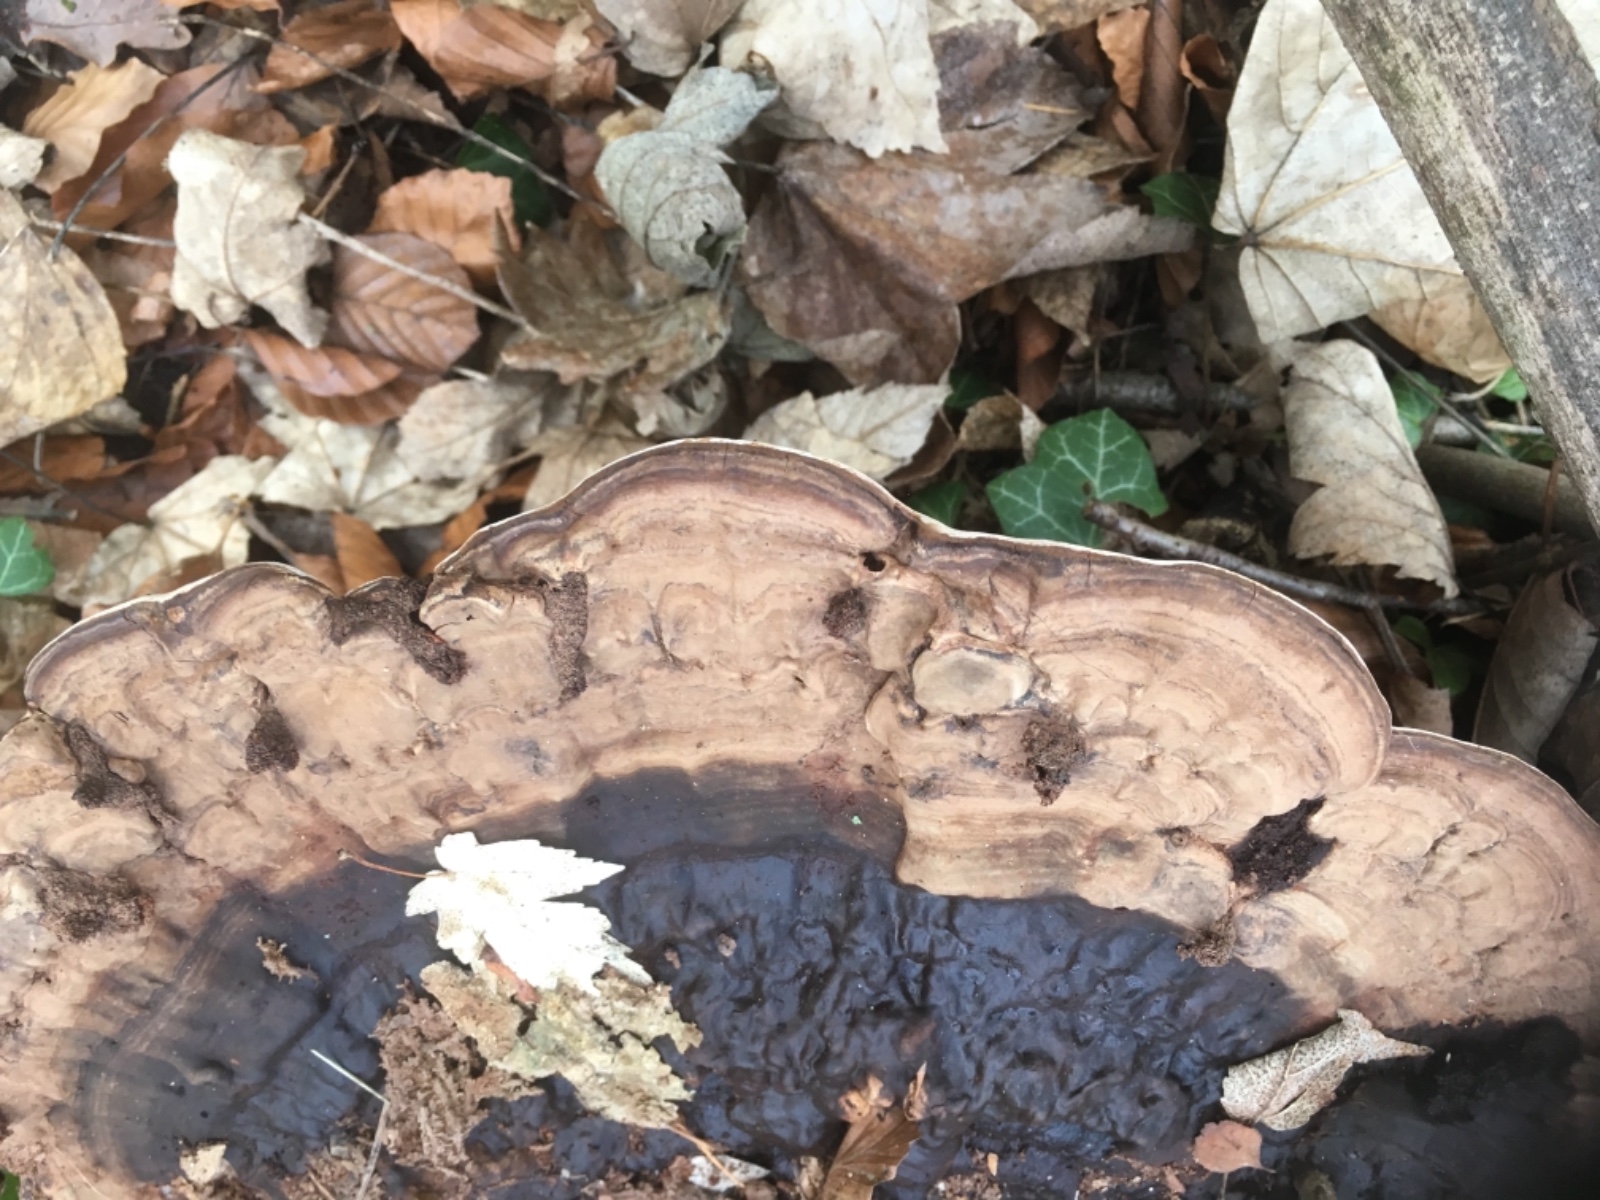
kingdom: Fungi
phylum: Basidiomycota
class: Agaricomycetes
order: Polyporales
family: Polyporaceae
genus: Ganoderma
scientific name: Ganoderma applanatum
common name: flad lakporesvamp
